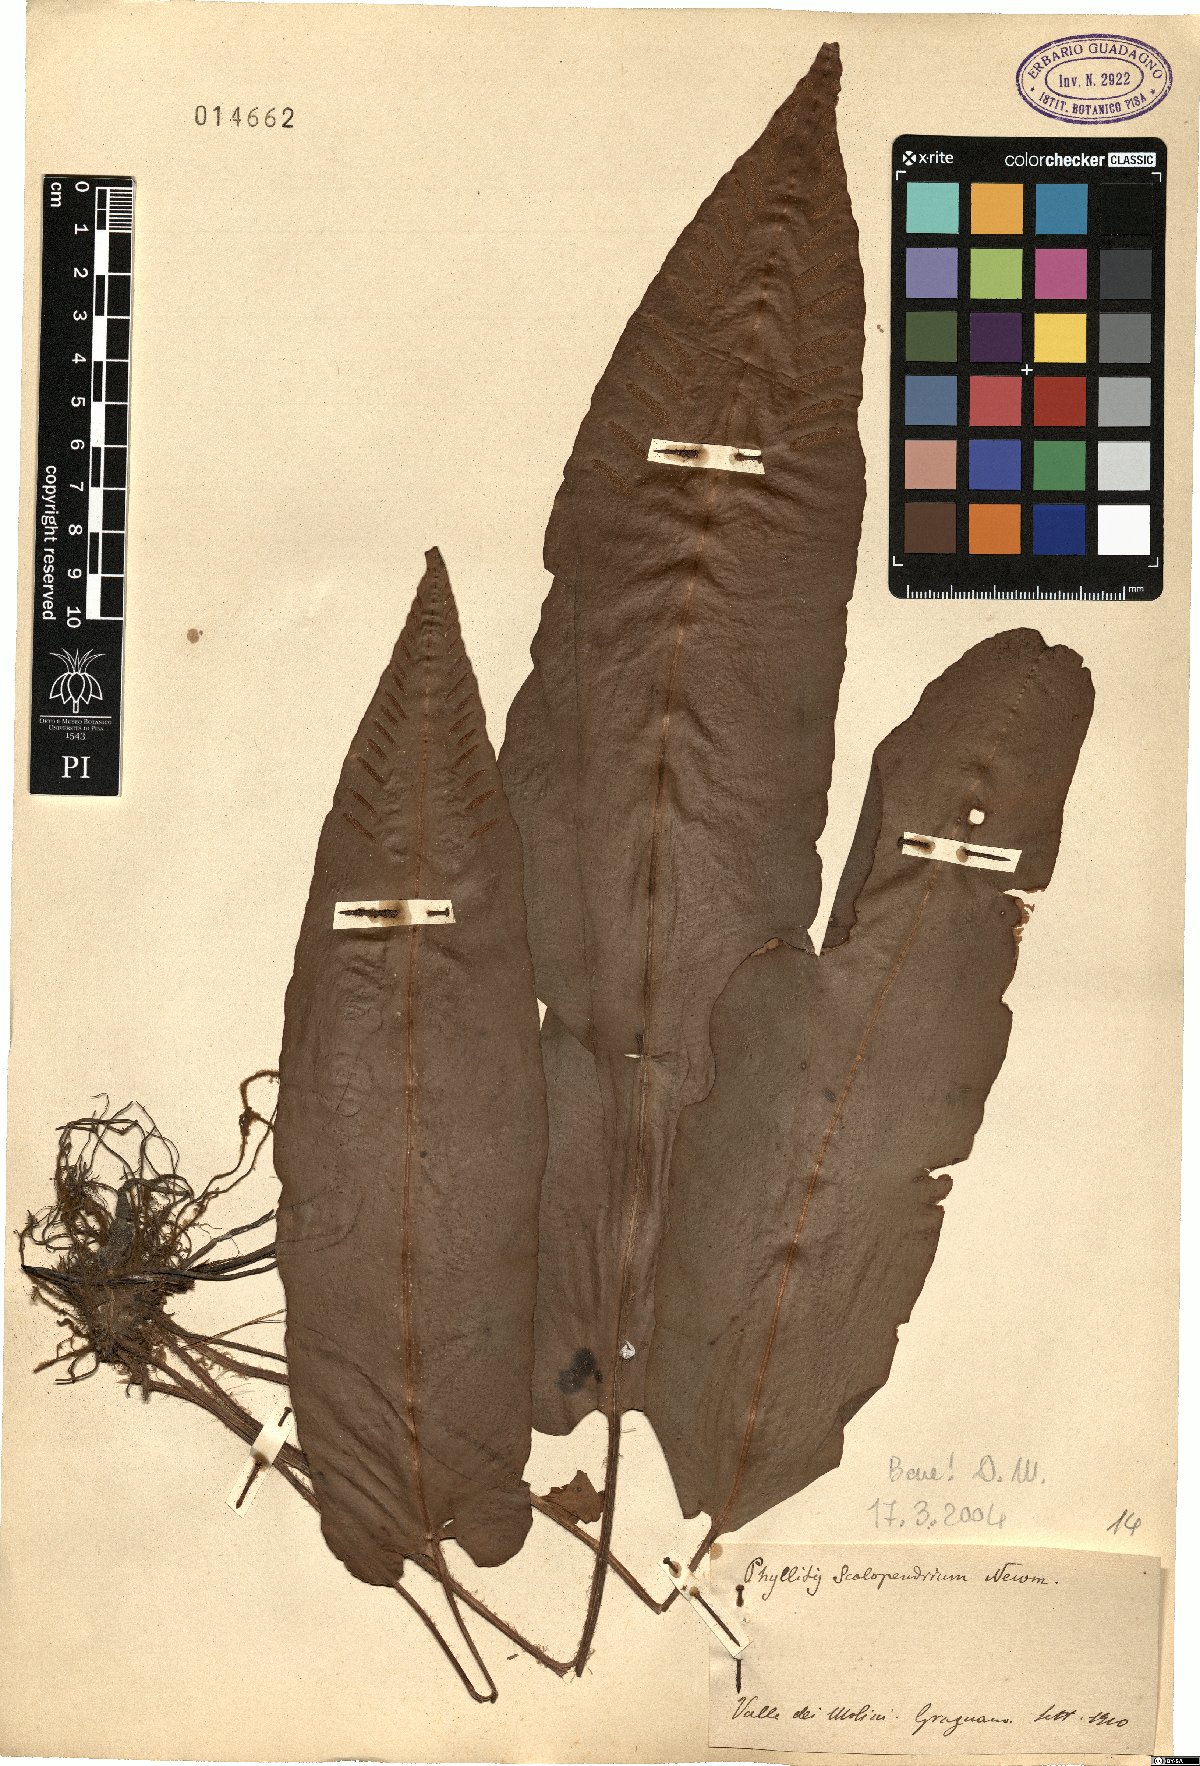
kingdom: Plantae
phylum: Tracheophyta
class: Polypodiopsida
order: Polypodiales
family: Aspleniaceae
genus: Asplenium
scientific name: Asplenium scolopendrium
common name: Hart's-tongue fern
